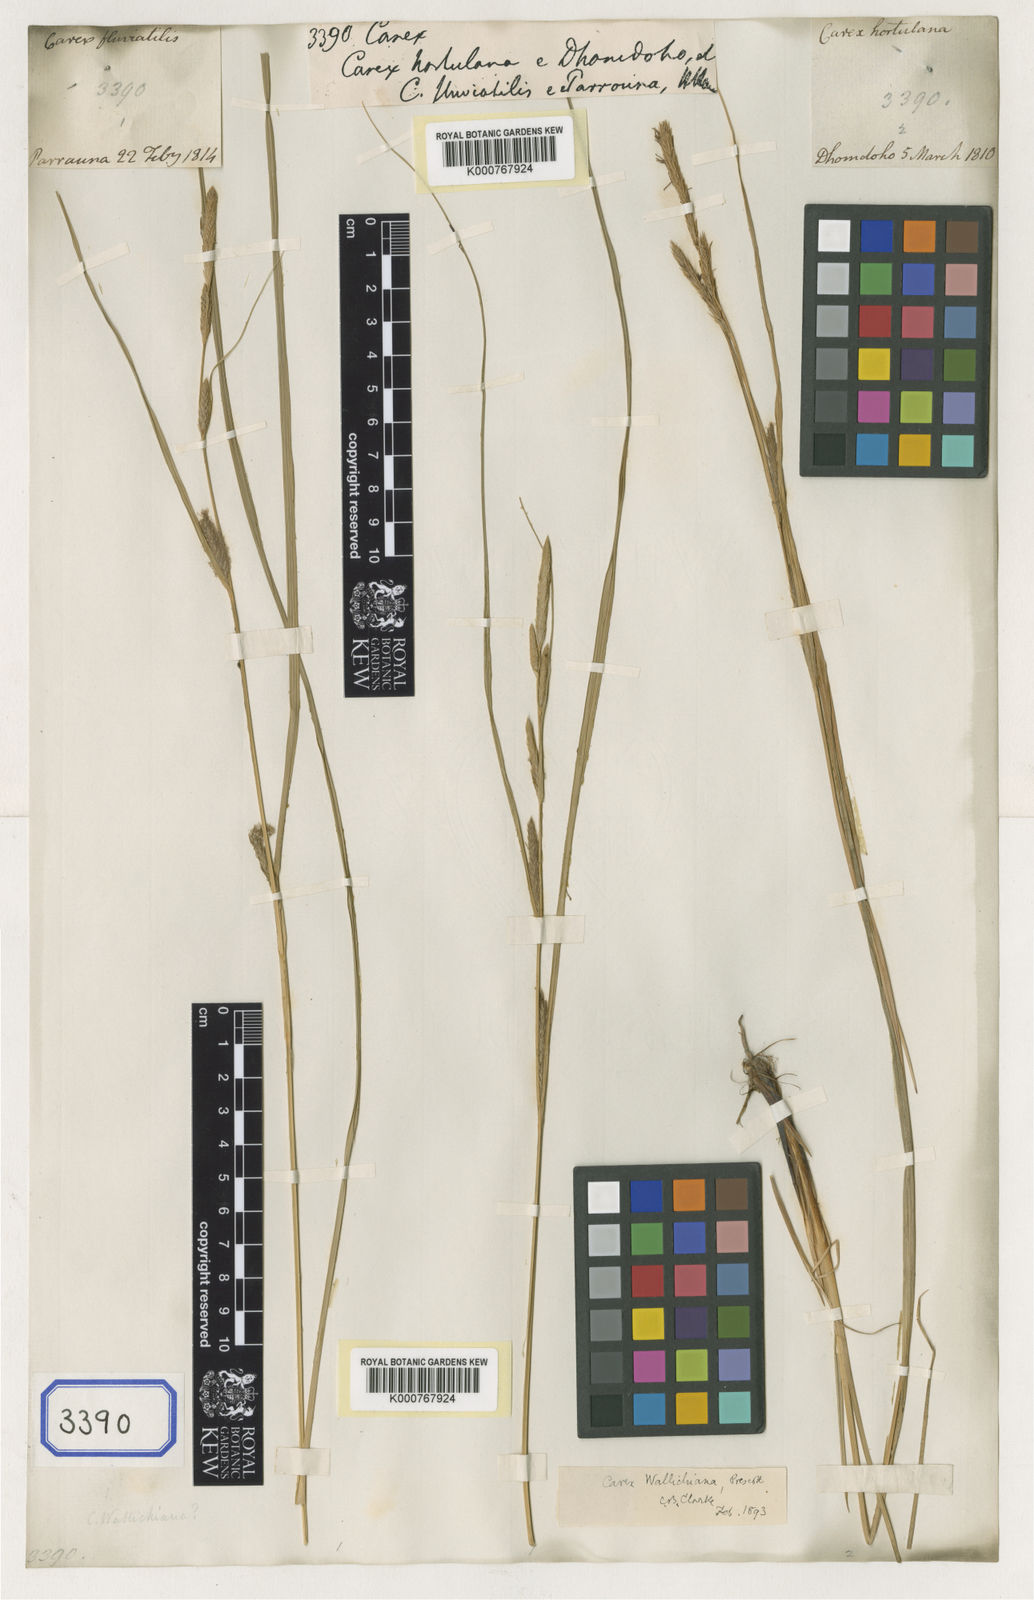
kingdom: Plantae
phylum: Tracheophyta
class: Liliopsida
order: Poales
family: Cyperaceae
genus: Carex
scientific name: Carex
